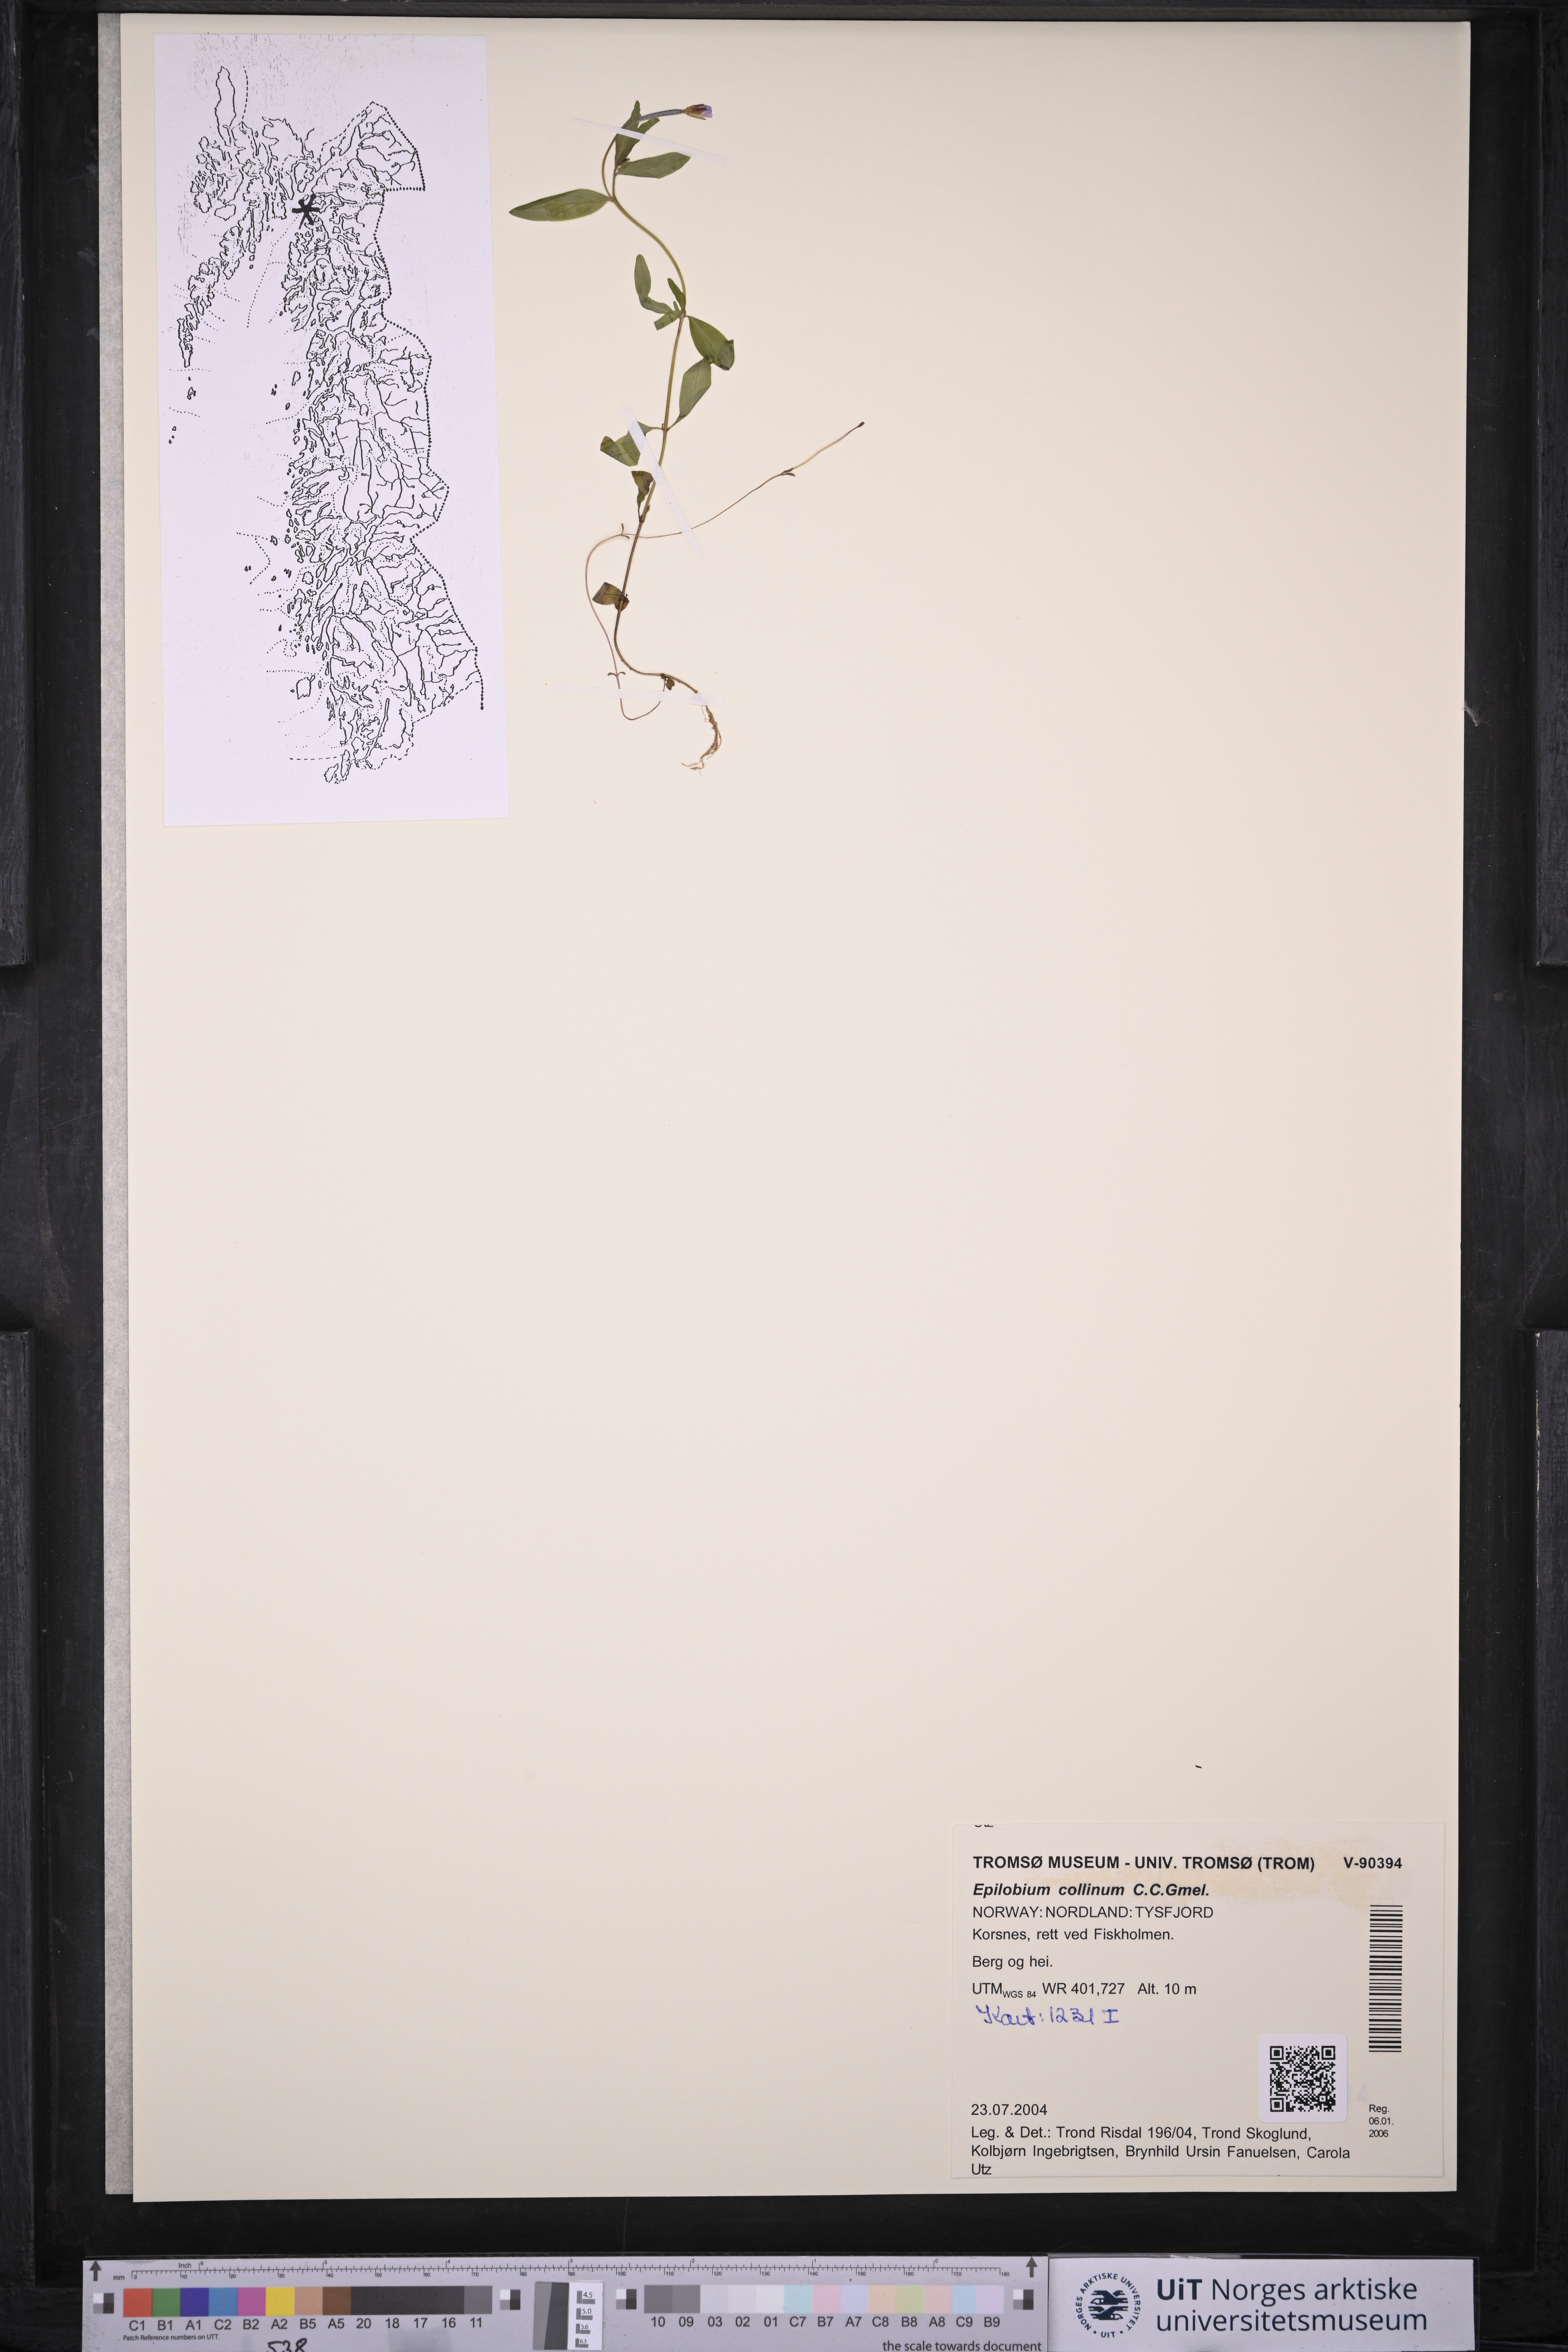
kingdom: Plantae
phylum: Tracheophyta
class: Magnoliopsida
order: Myrtales
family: Onagraceae
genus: Epilobium
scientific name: Epilobium collinum
